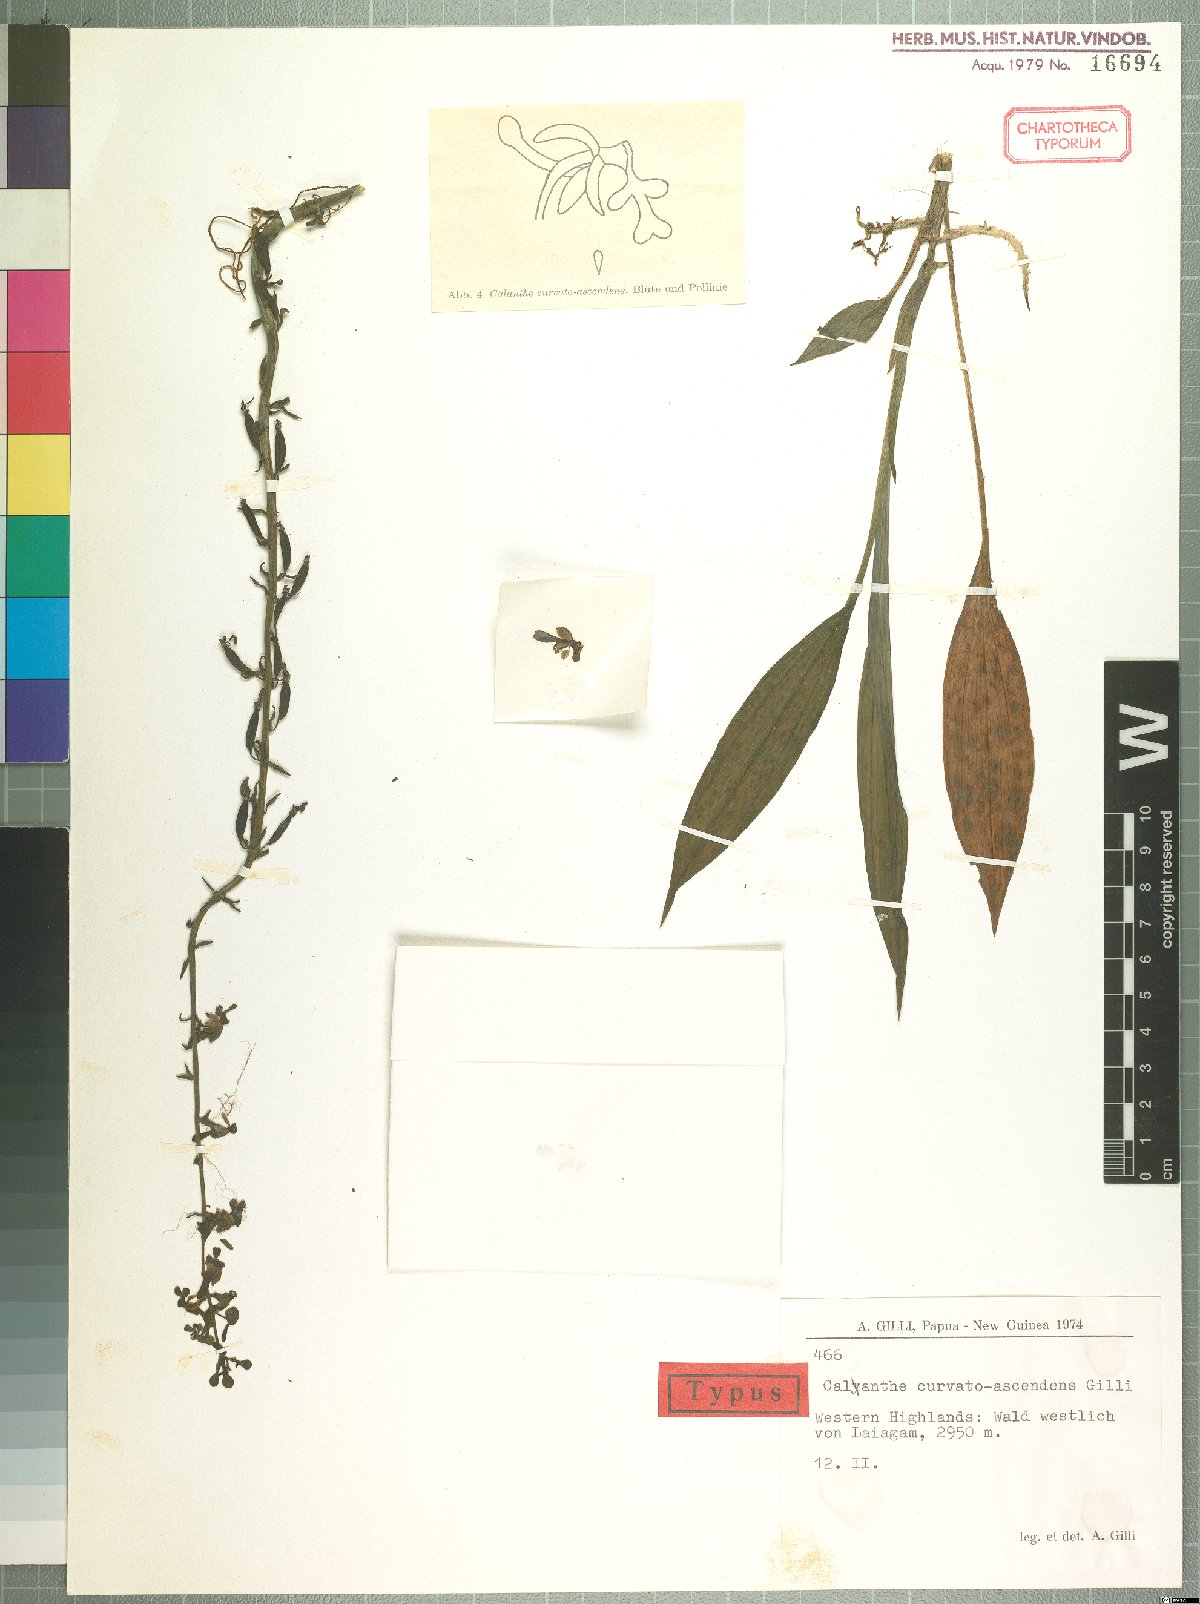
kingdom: Plantae
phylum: Tracheophyta
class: Liliopsida
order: Asparagales
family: Orchidaceae
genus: Calanthe
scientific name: Calanthe micrantha
